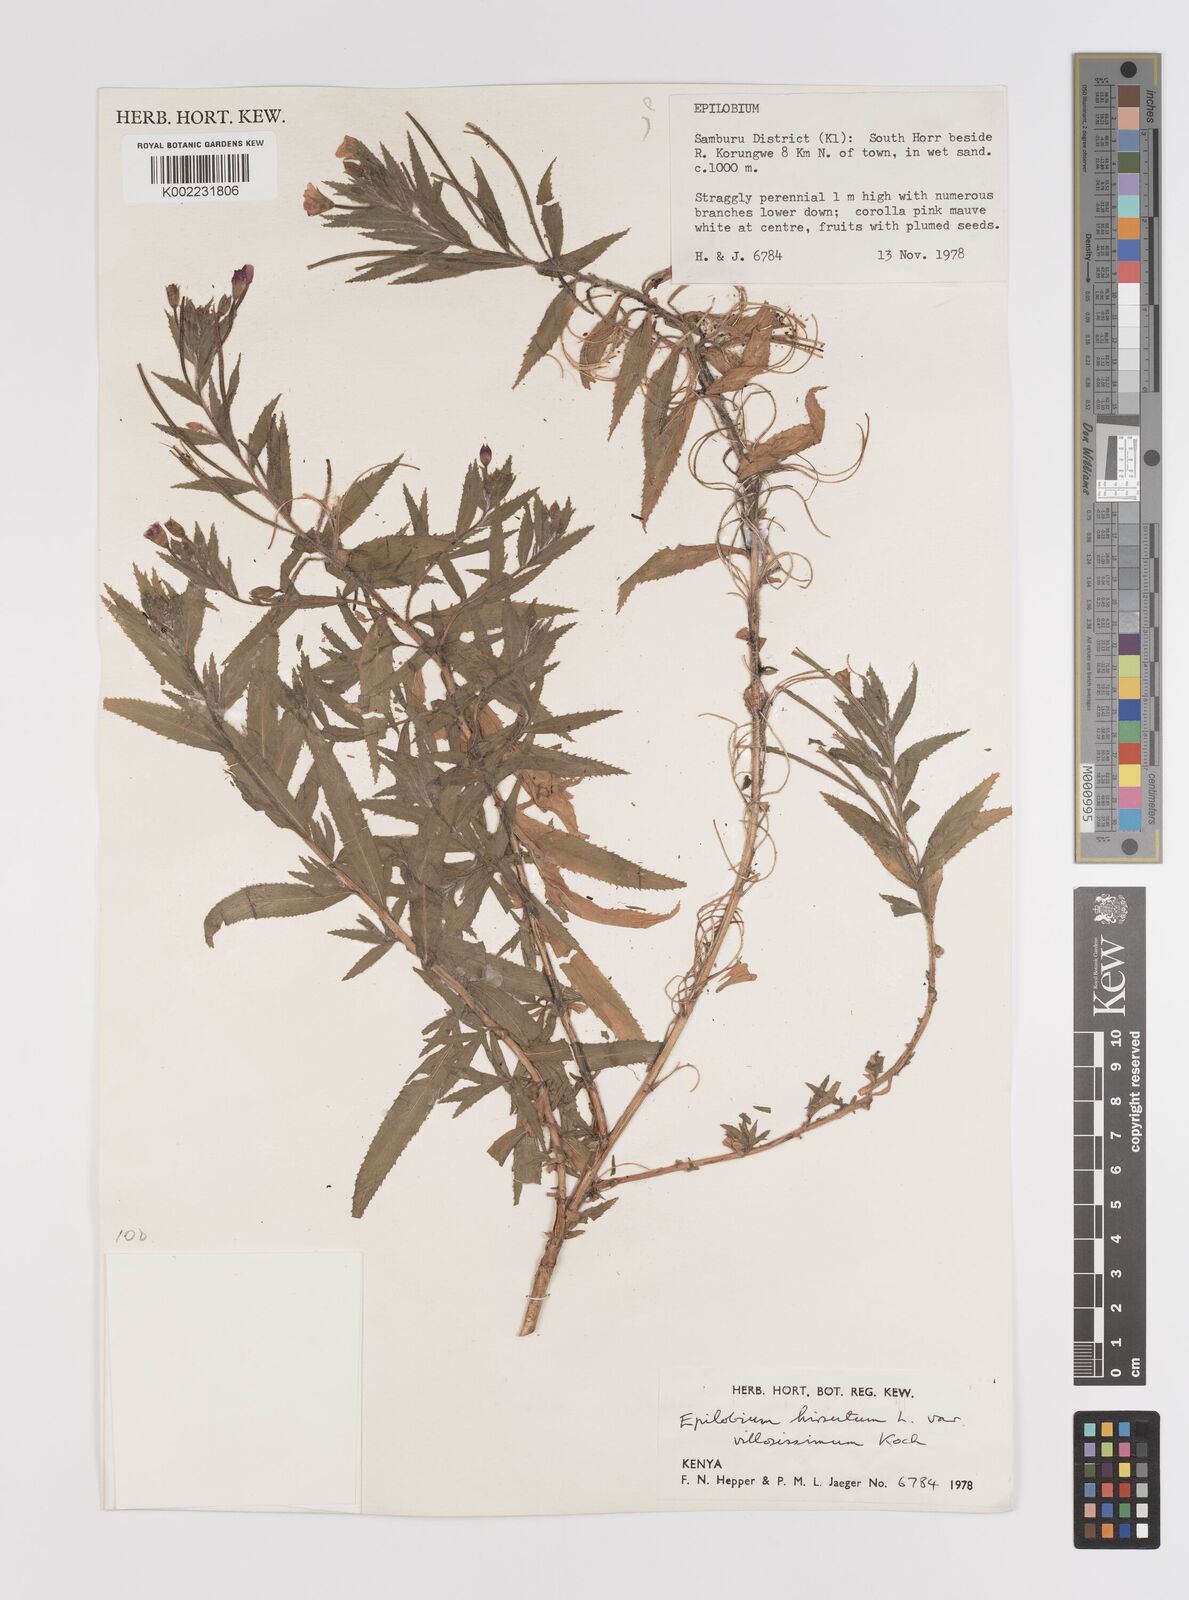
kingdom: Plantae
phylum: Tracheophyta
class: Magnoliopsida
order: Myrtales
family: Onagraceae
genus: Epilobium
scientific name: Epilobium hirsutum
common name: Great willowherb
